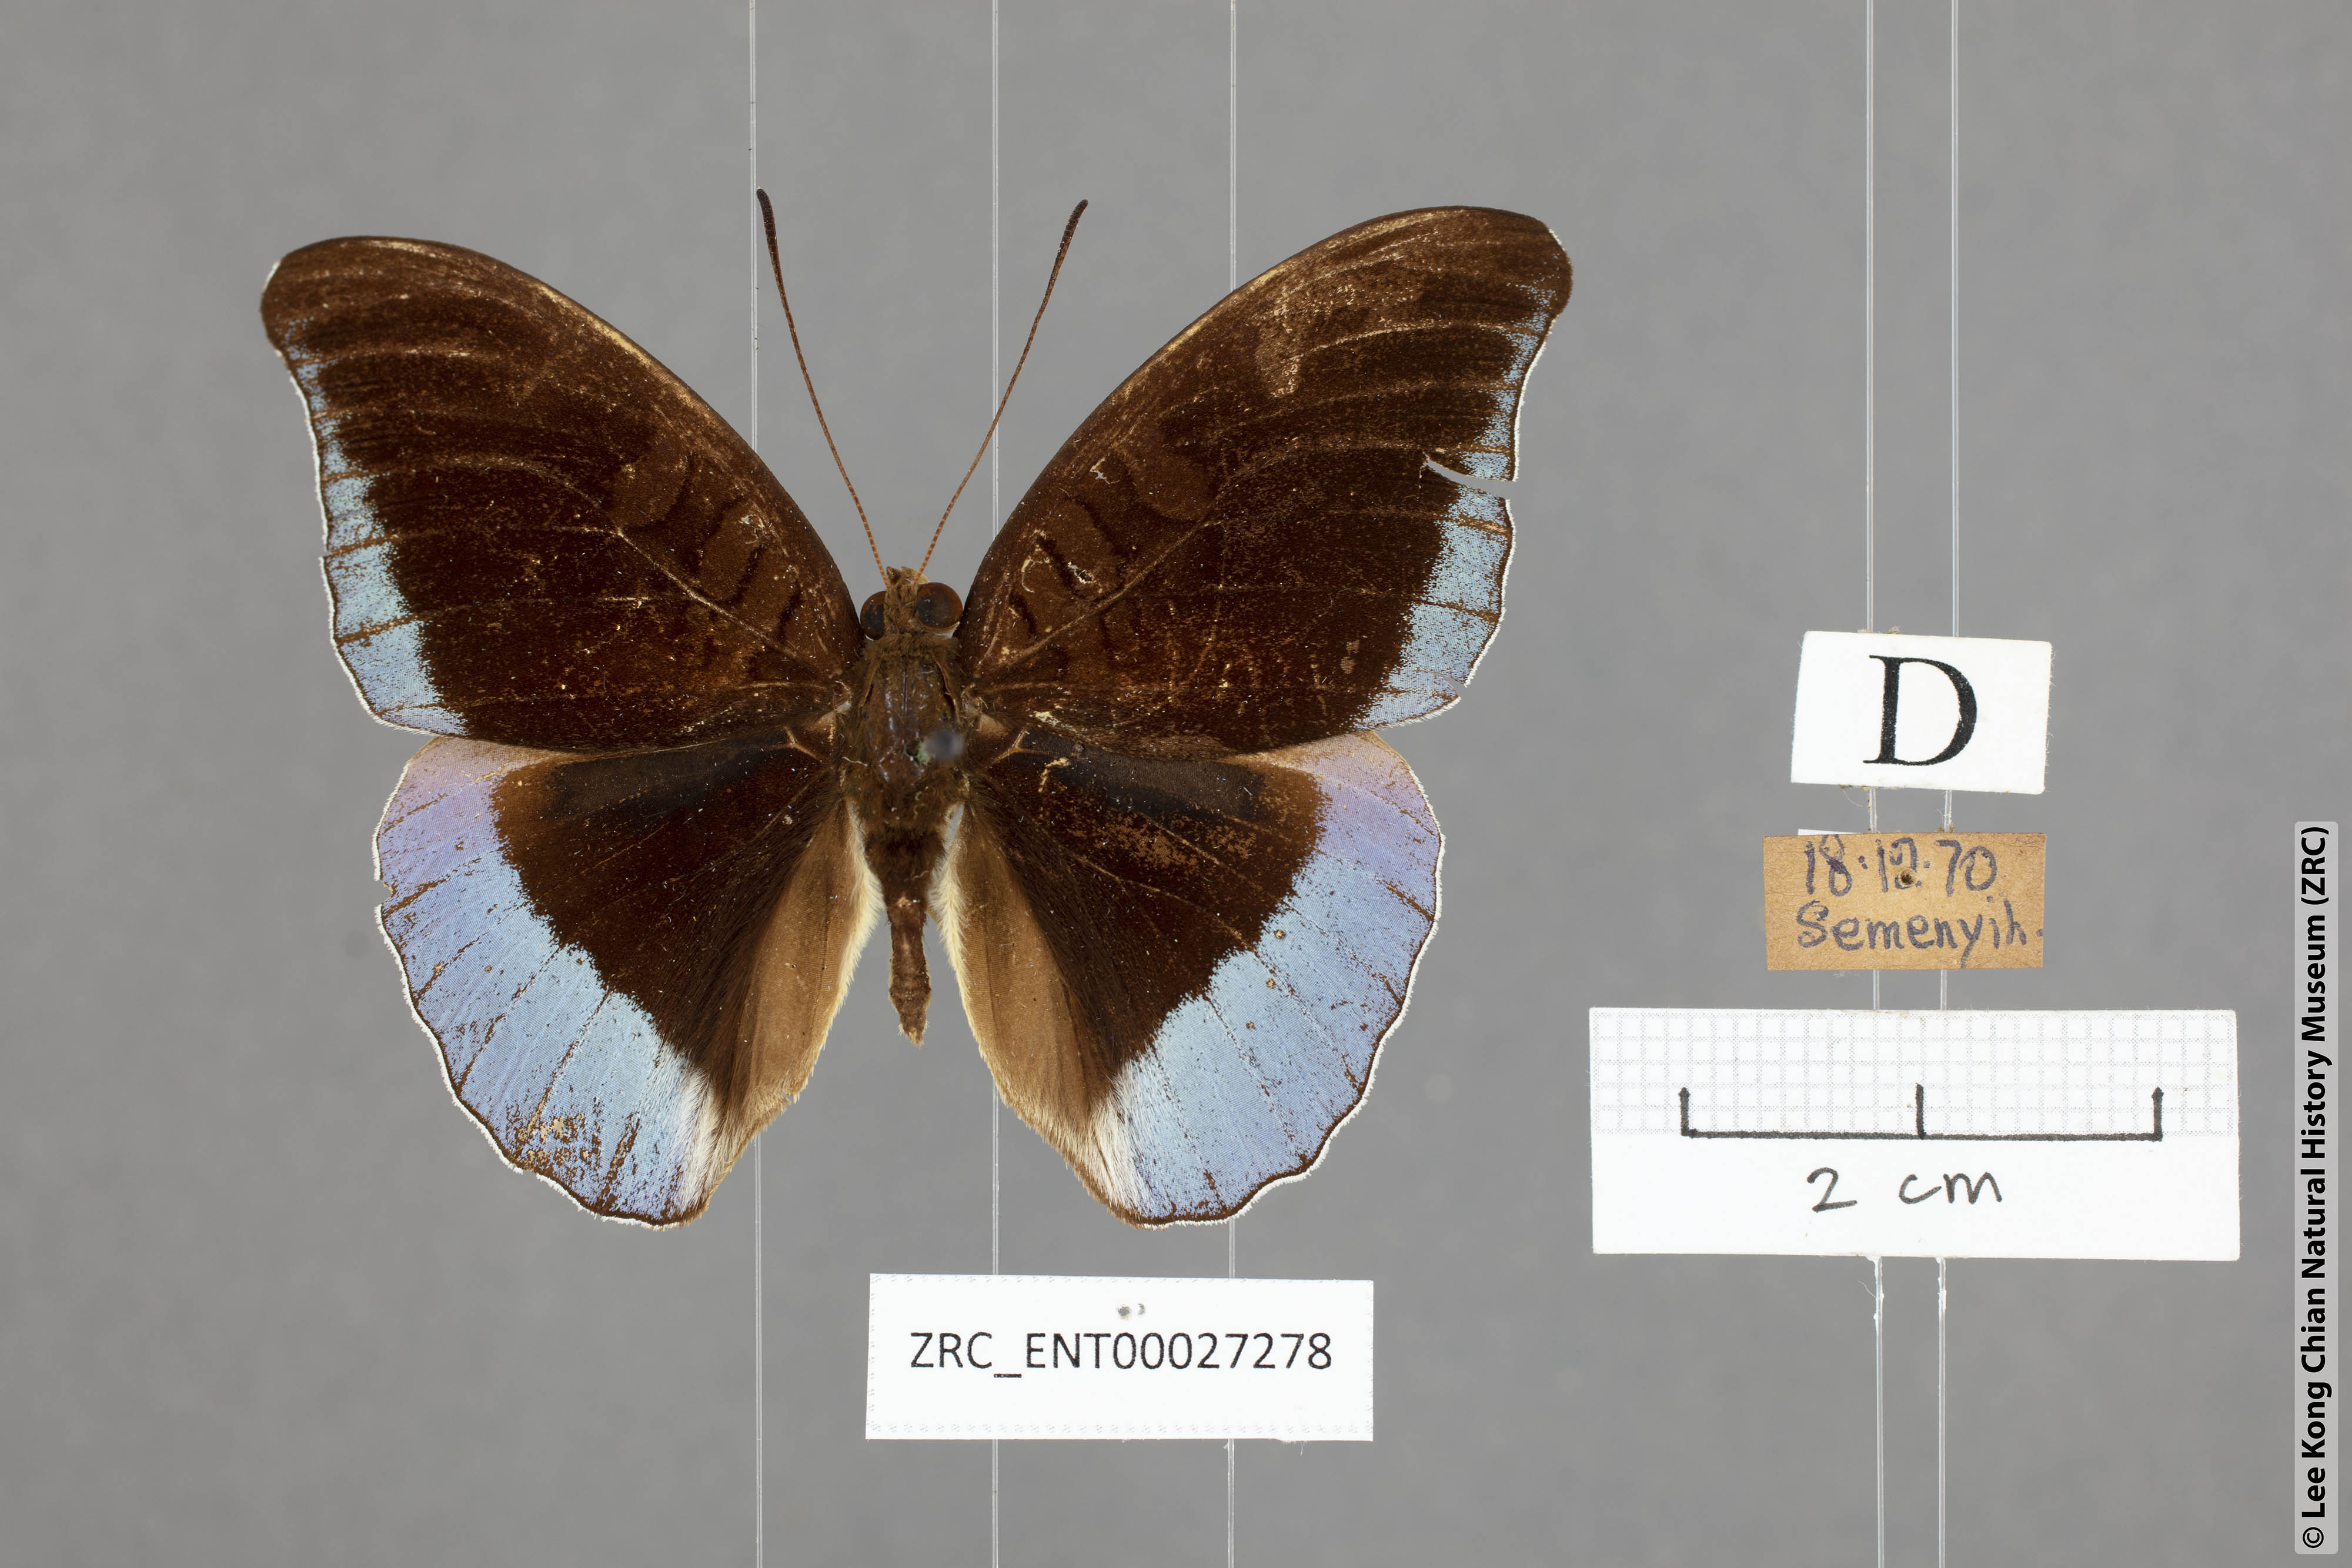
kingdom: Animalia
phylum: Arthropoda
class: Insecta
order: Lepidoptera
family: Nymphalidae
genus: Tanaecia
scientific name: Tanaecia godartii
